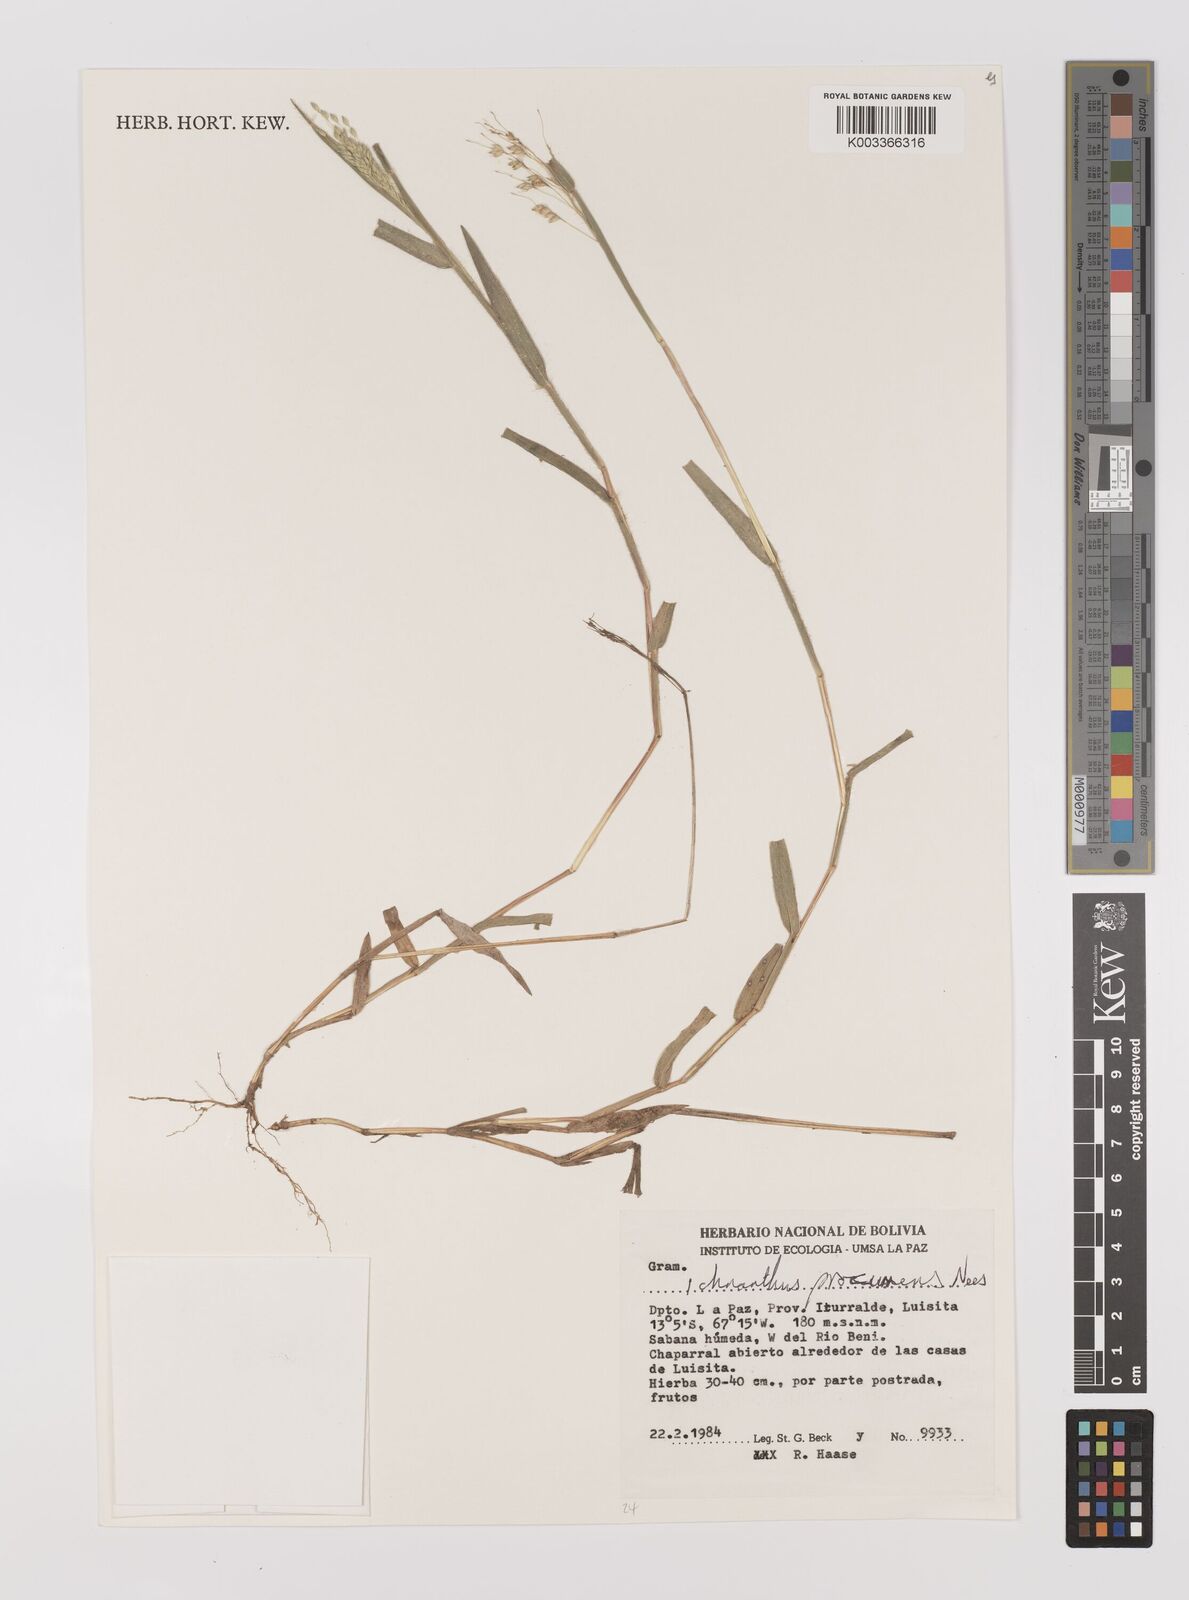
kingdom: Plantae
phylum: Tracheophyta
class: Liliopsida
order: Poales
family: Poaceae
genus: Oedochloa
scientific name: Oedochloa procurrens
